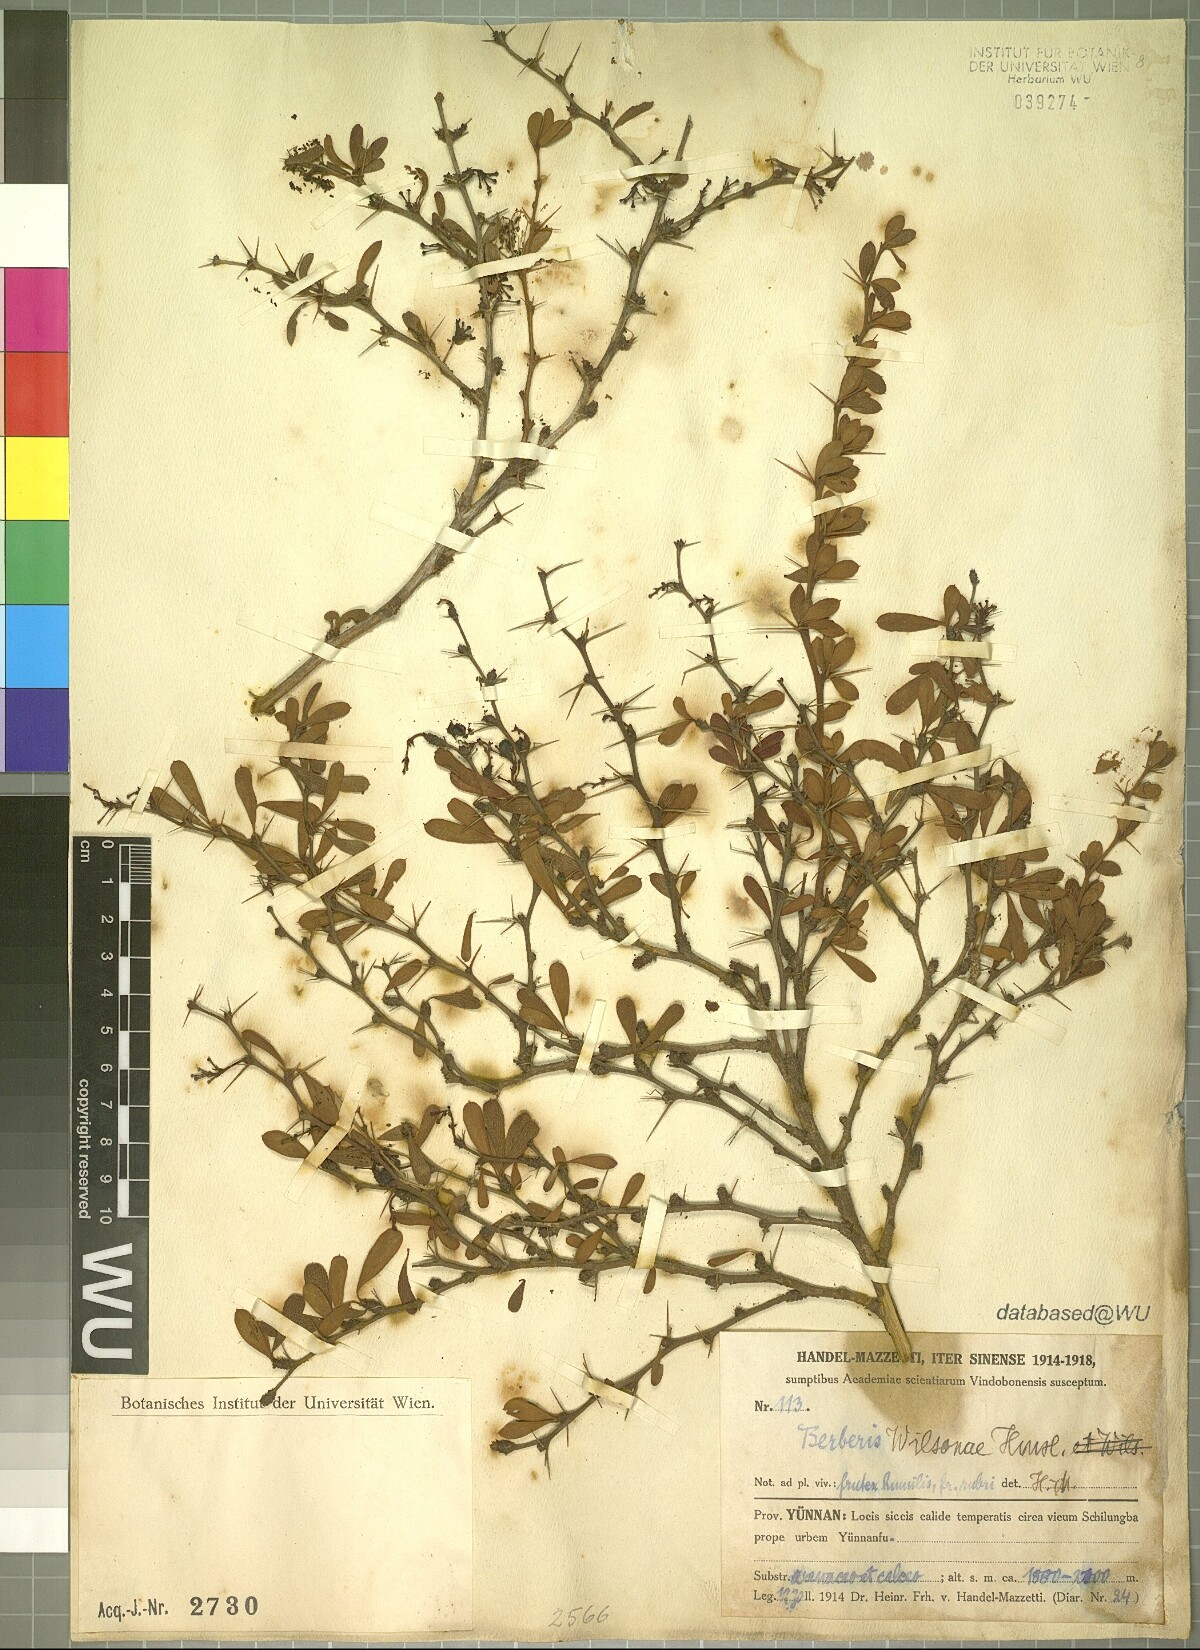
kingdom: Plantae
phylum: Tracheophyta
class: Magnoliopsida
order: Ranunculales
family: Berberidaceae
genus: Berberis
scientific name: Berberis wilsonii
